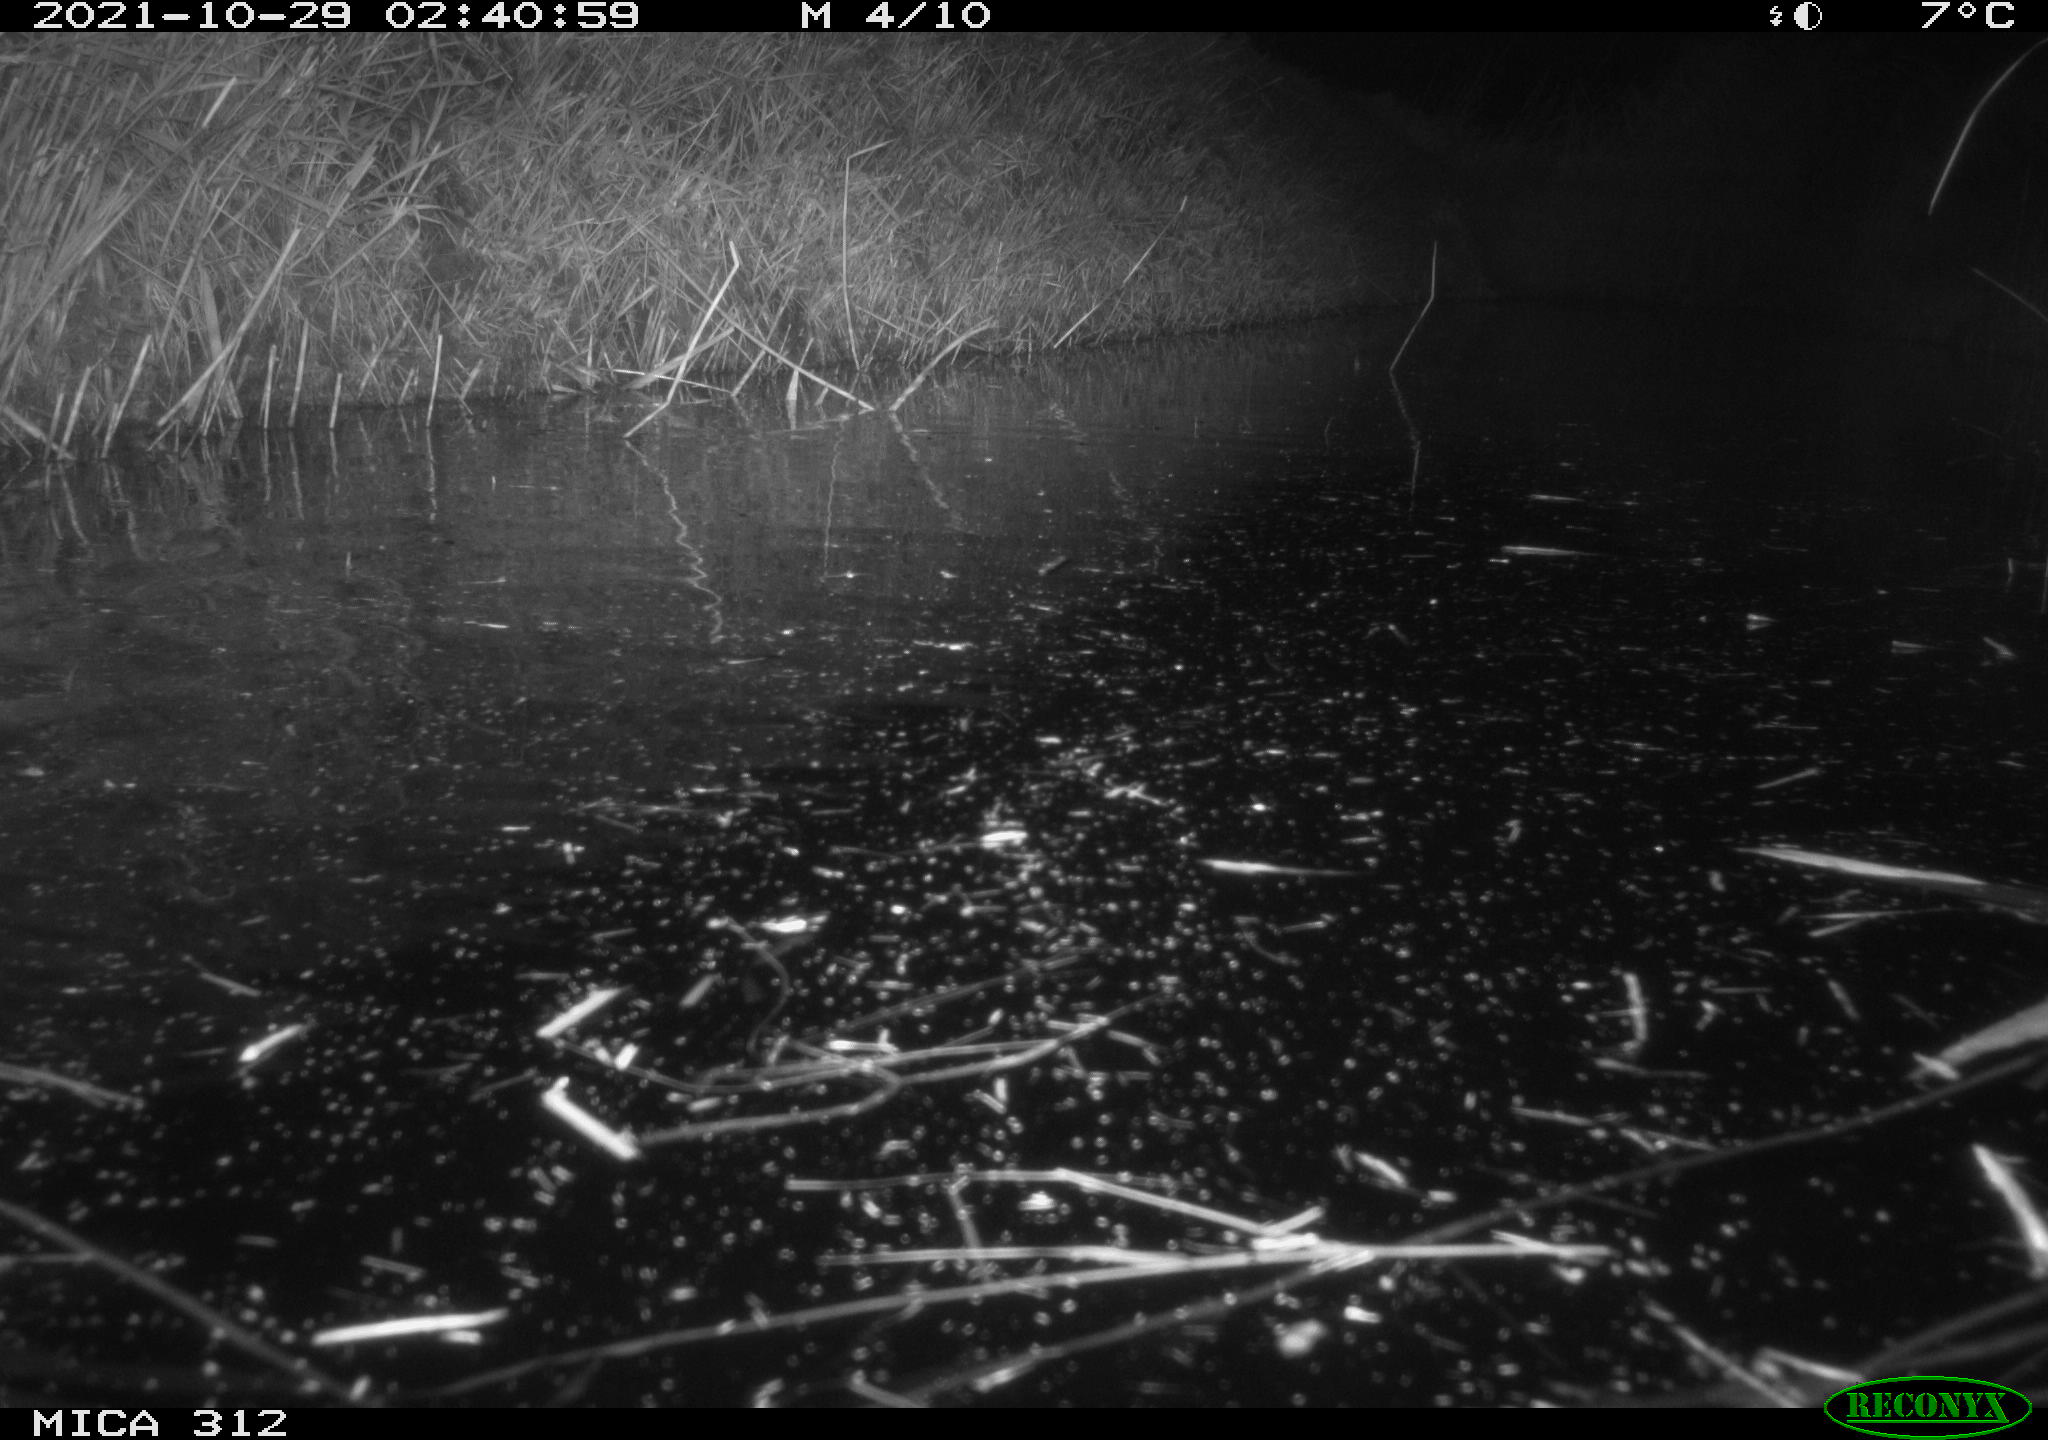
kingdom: Animalia
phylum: Chordata
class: Mammalia
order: Rodentia
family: Cricetidae
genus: Ondatra
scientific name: Ondatra zibethicus
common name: Muskrat
